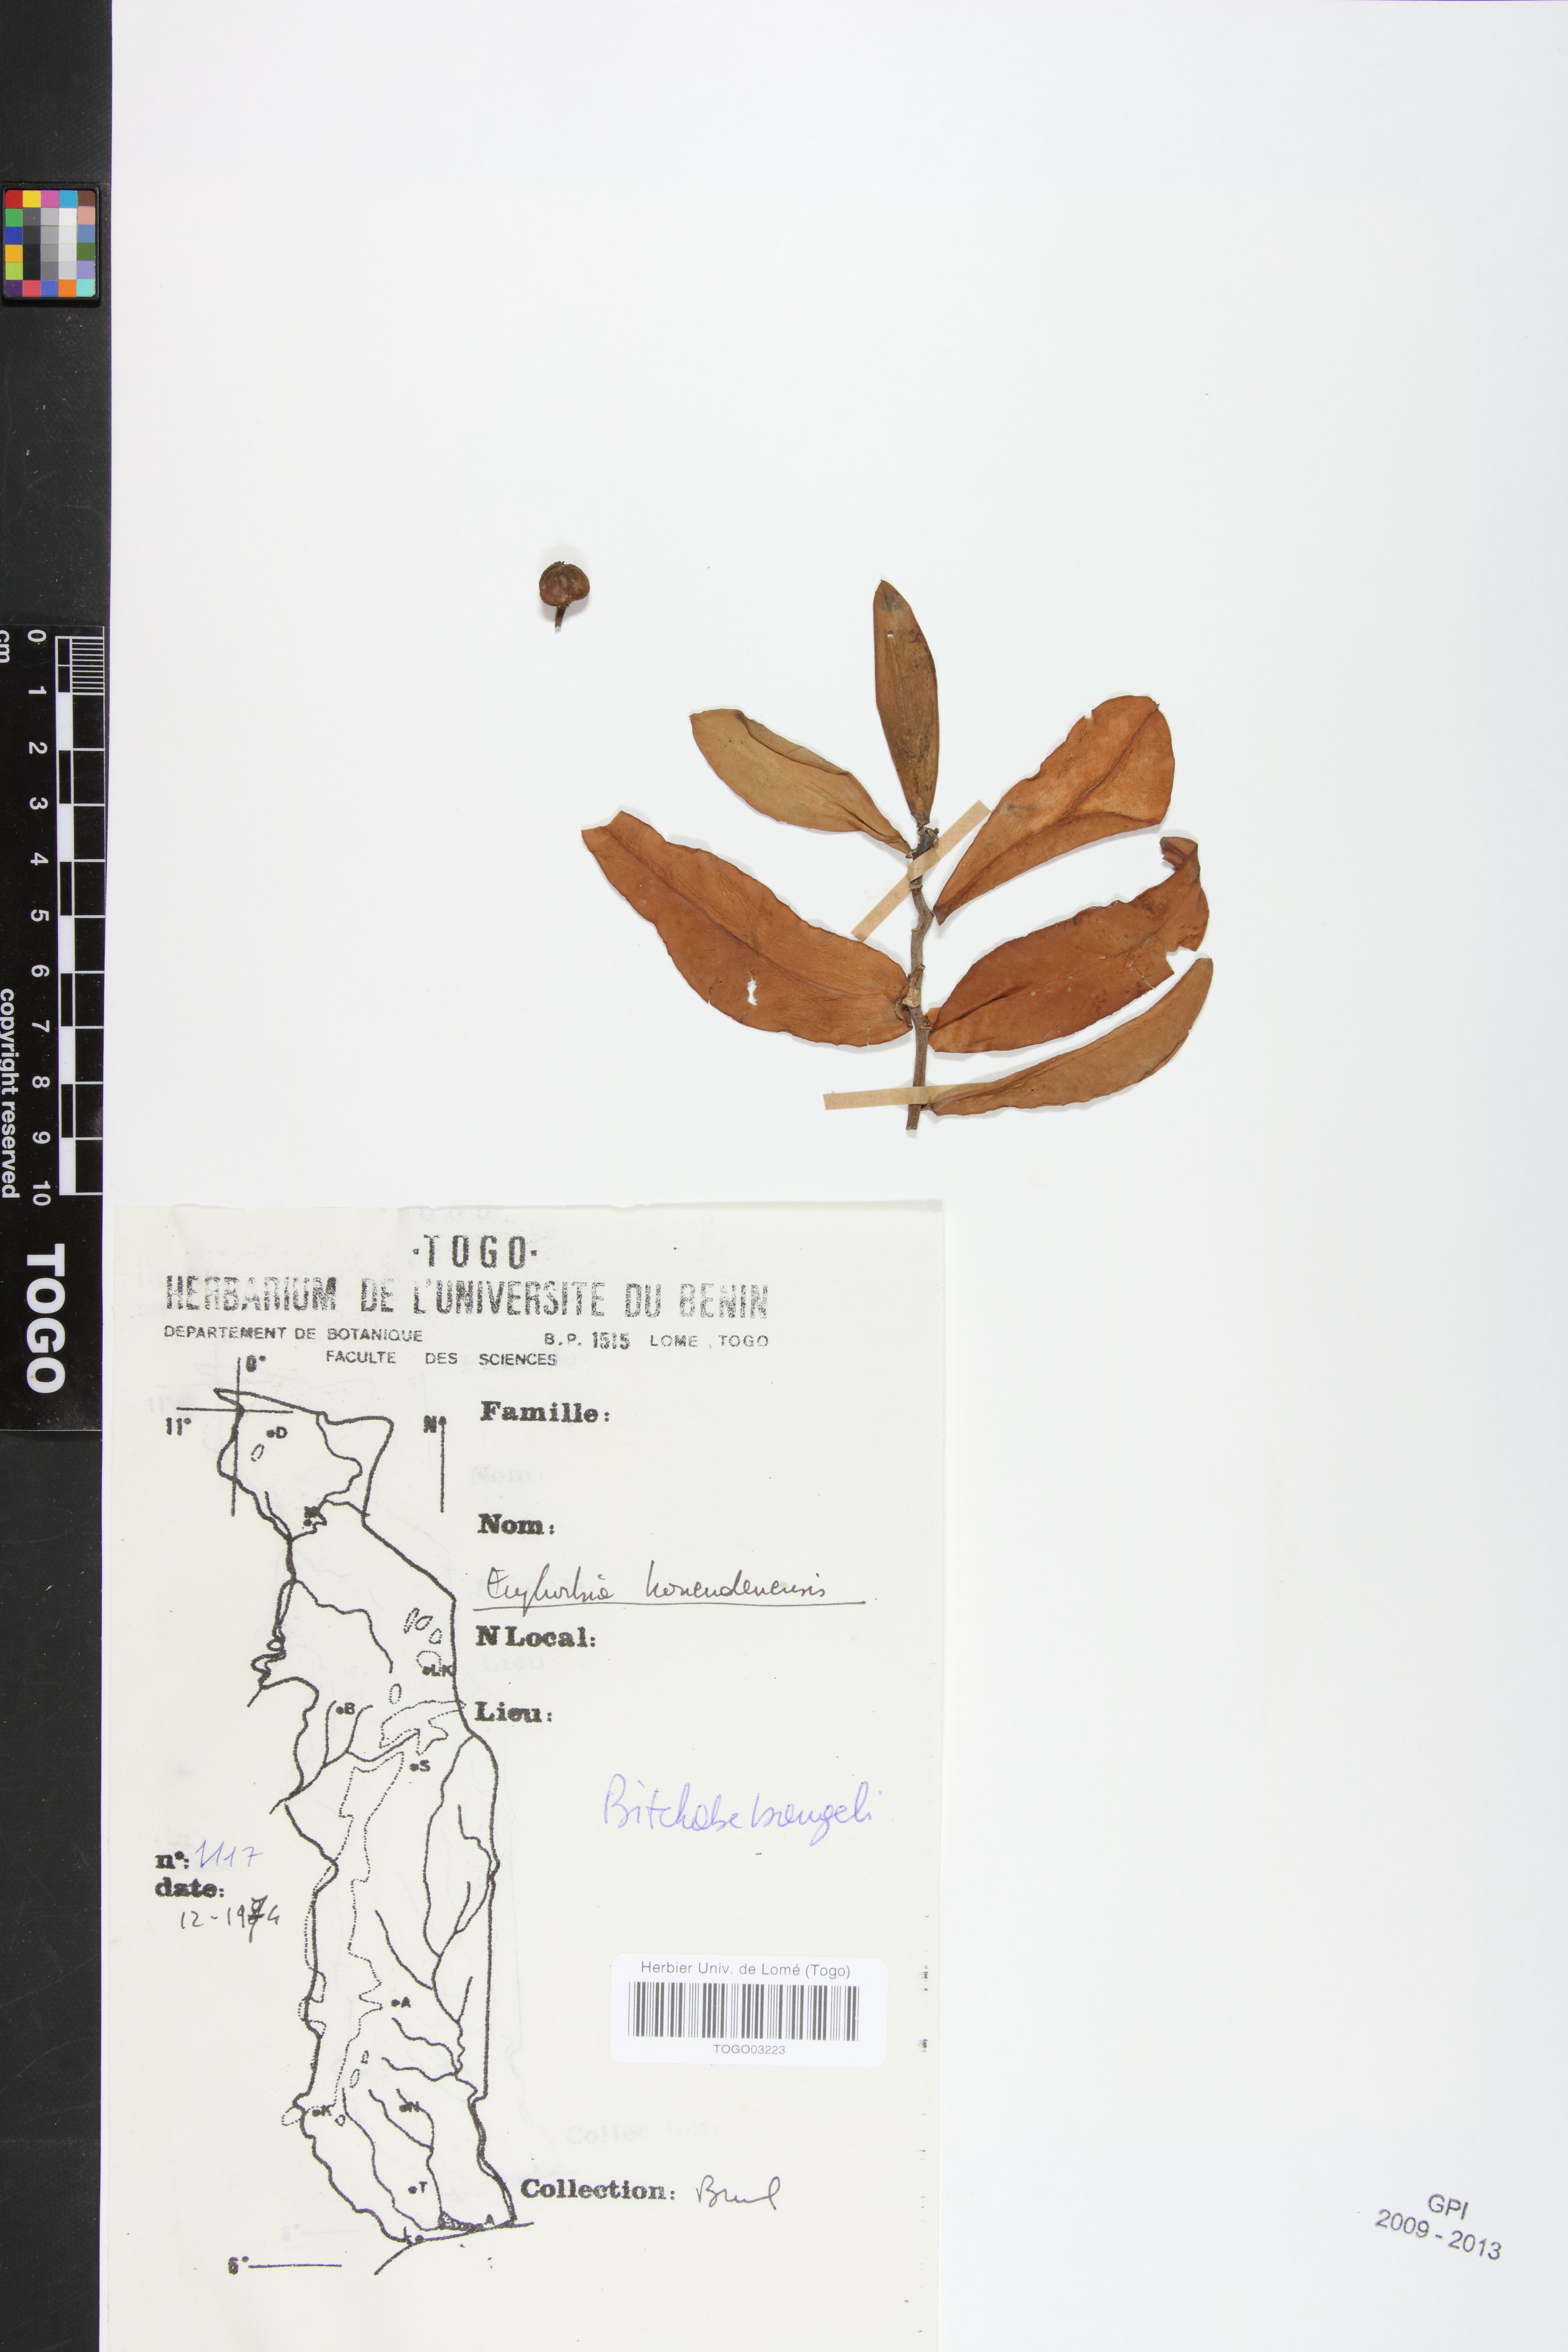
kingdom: Plantae
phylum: Tracheophyta
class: Magnoliopsida
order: Malpighiales
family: Euphorbiaceae
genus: Euphorbia
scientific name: Euphorbia kouandenensis
